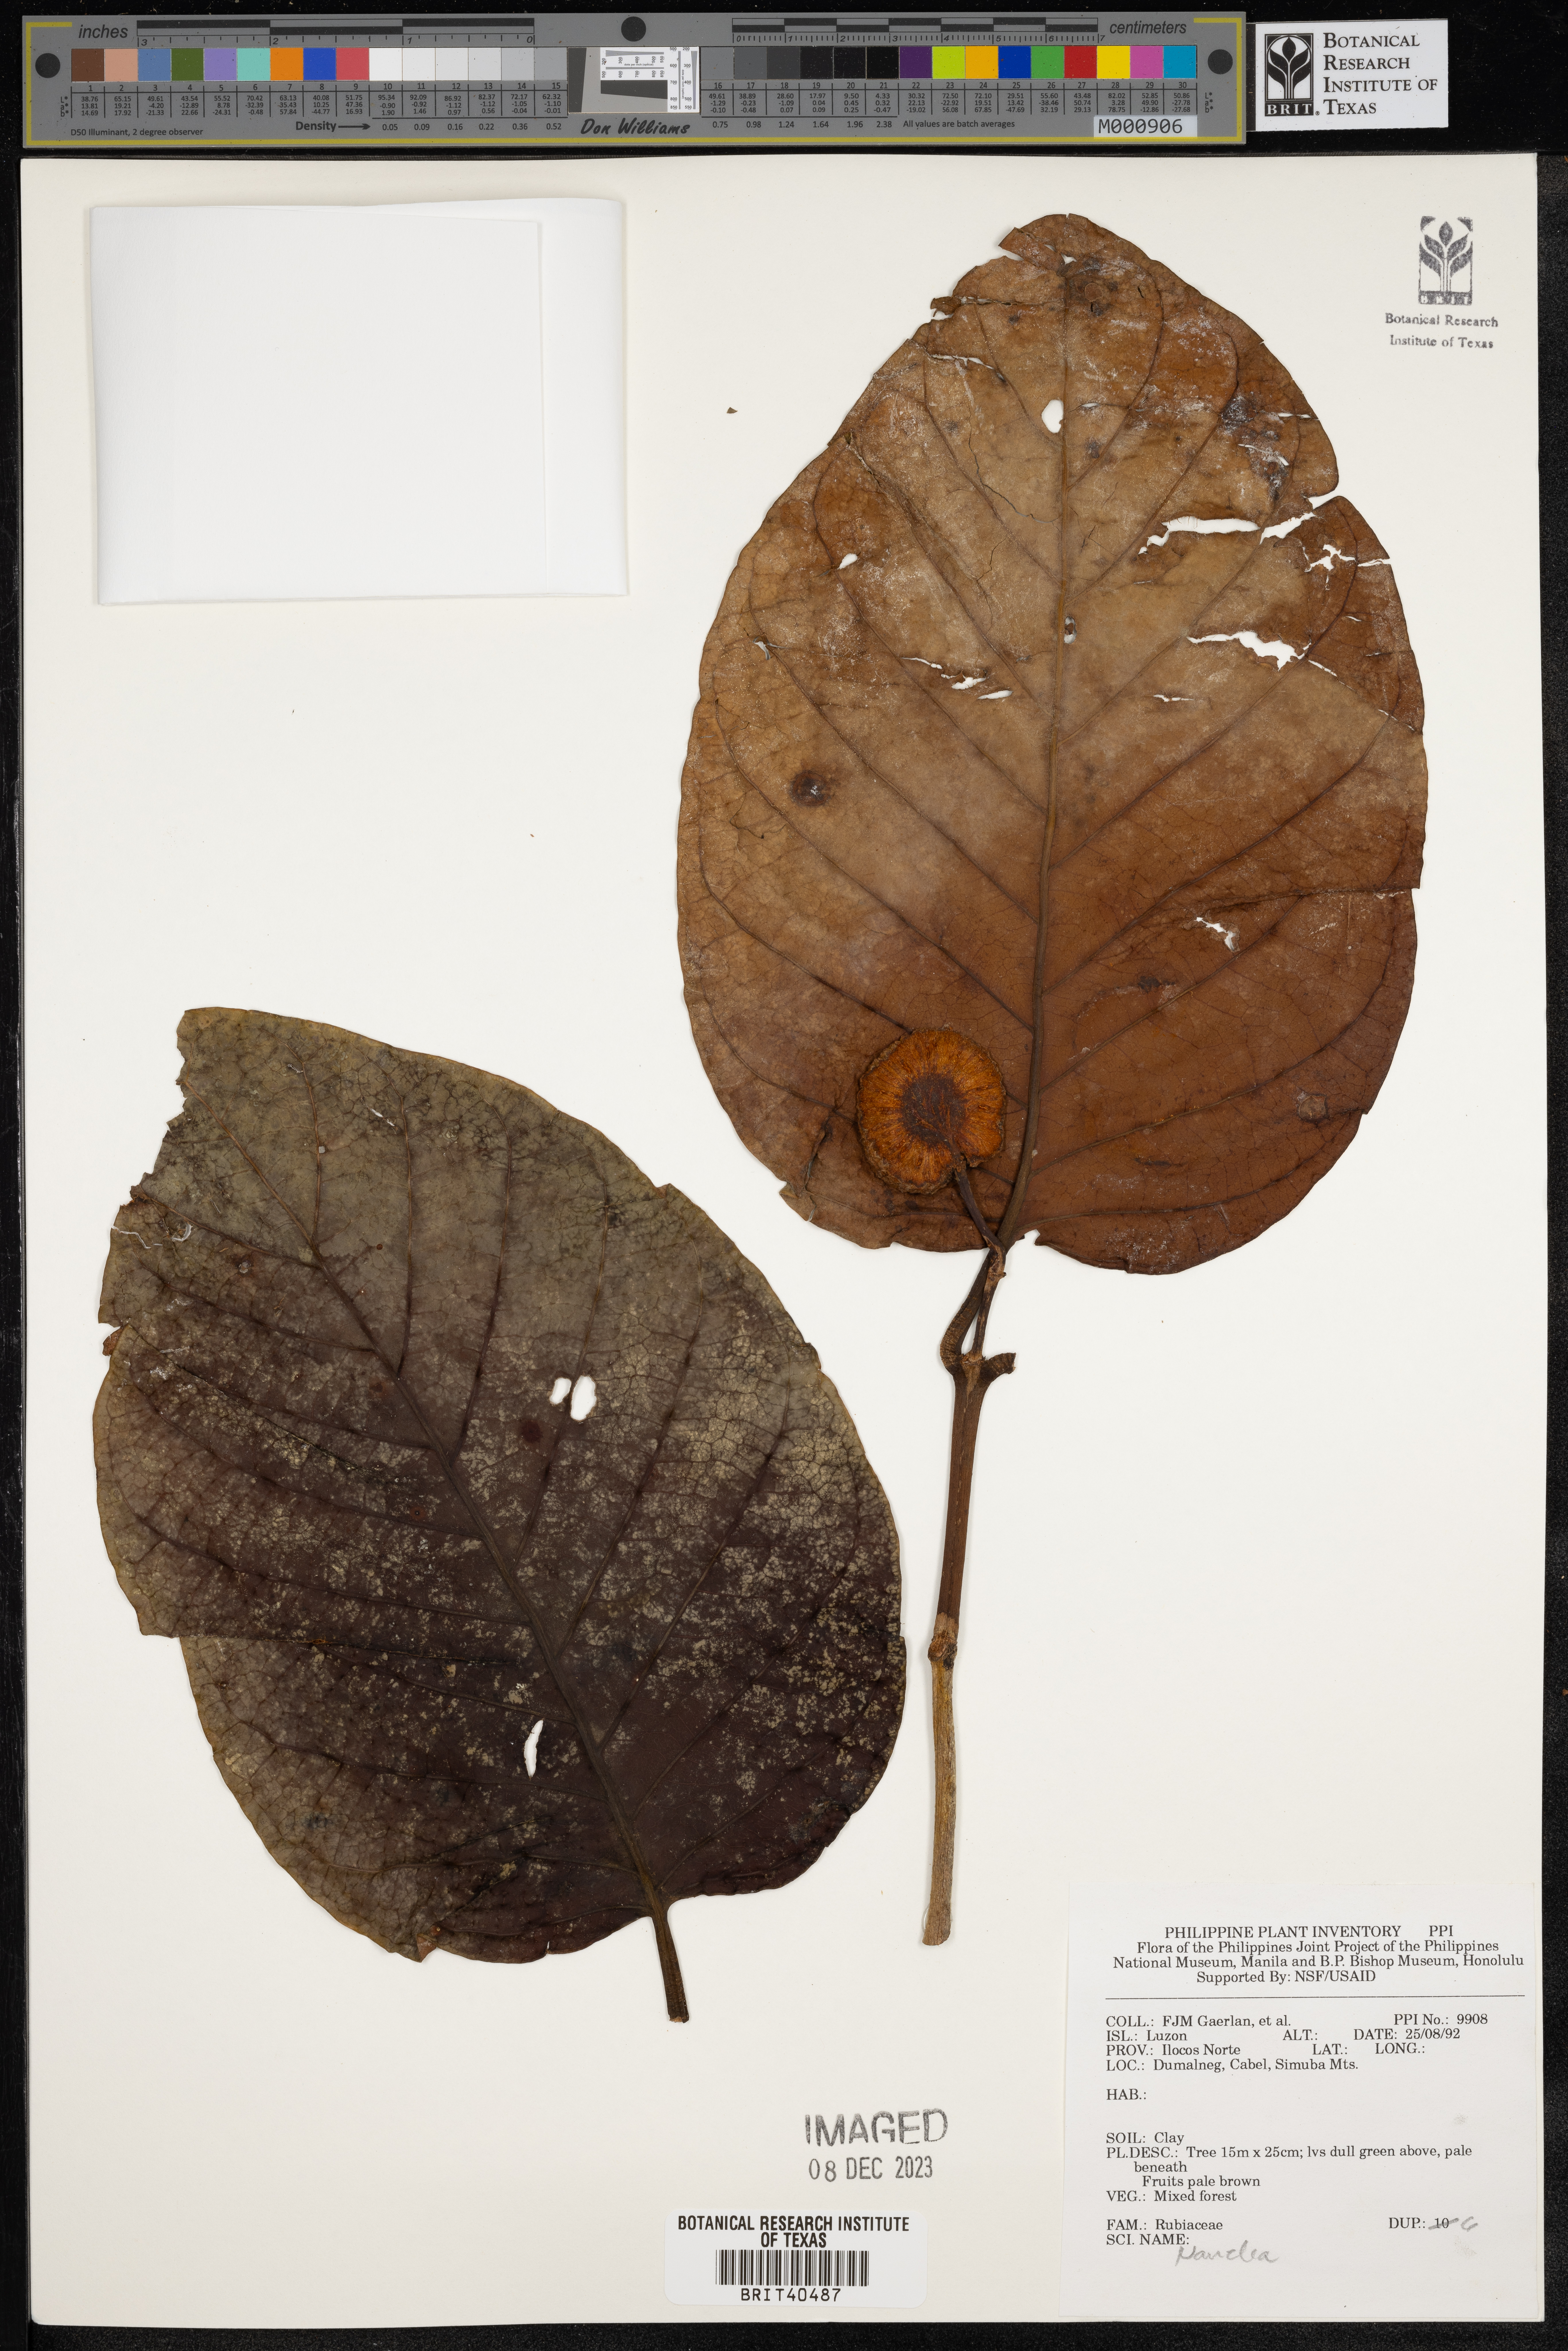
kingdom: Plantae
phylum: Tracheophyta
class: Magnoliopsida
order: Gentianales
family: Rubiaceae
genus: Nauclea
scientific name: Nauclea
